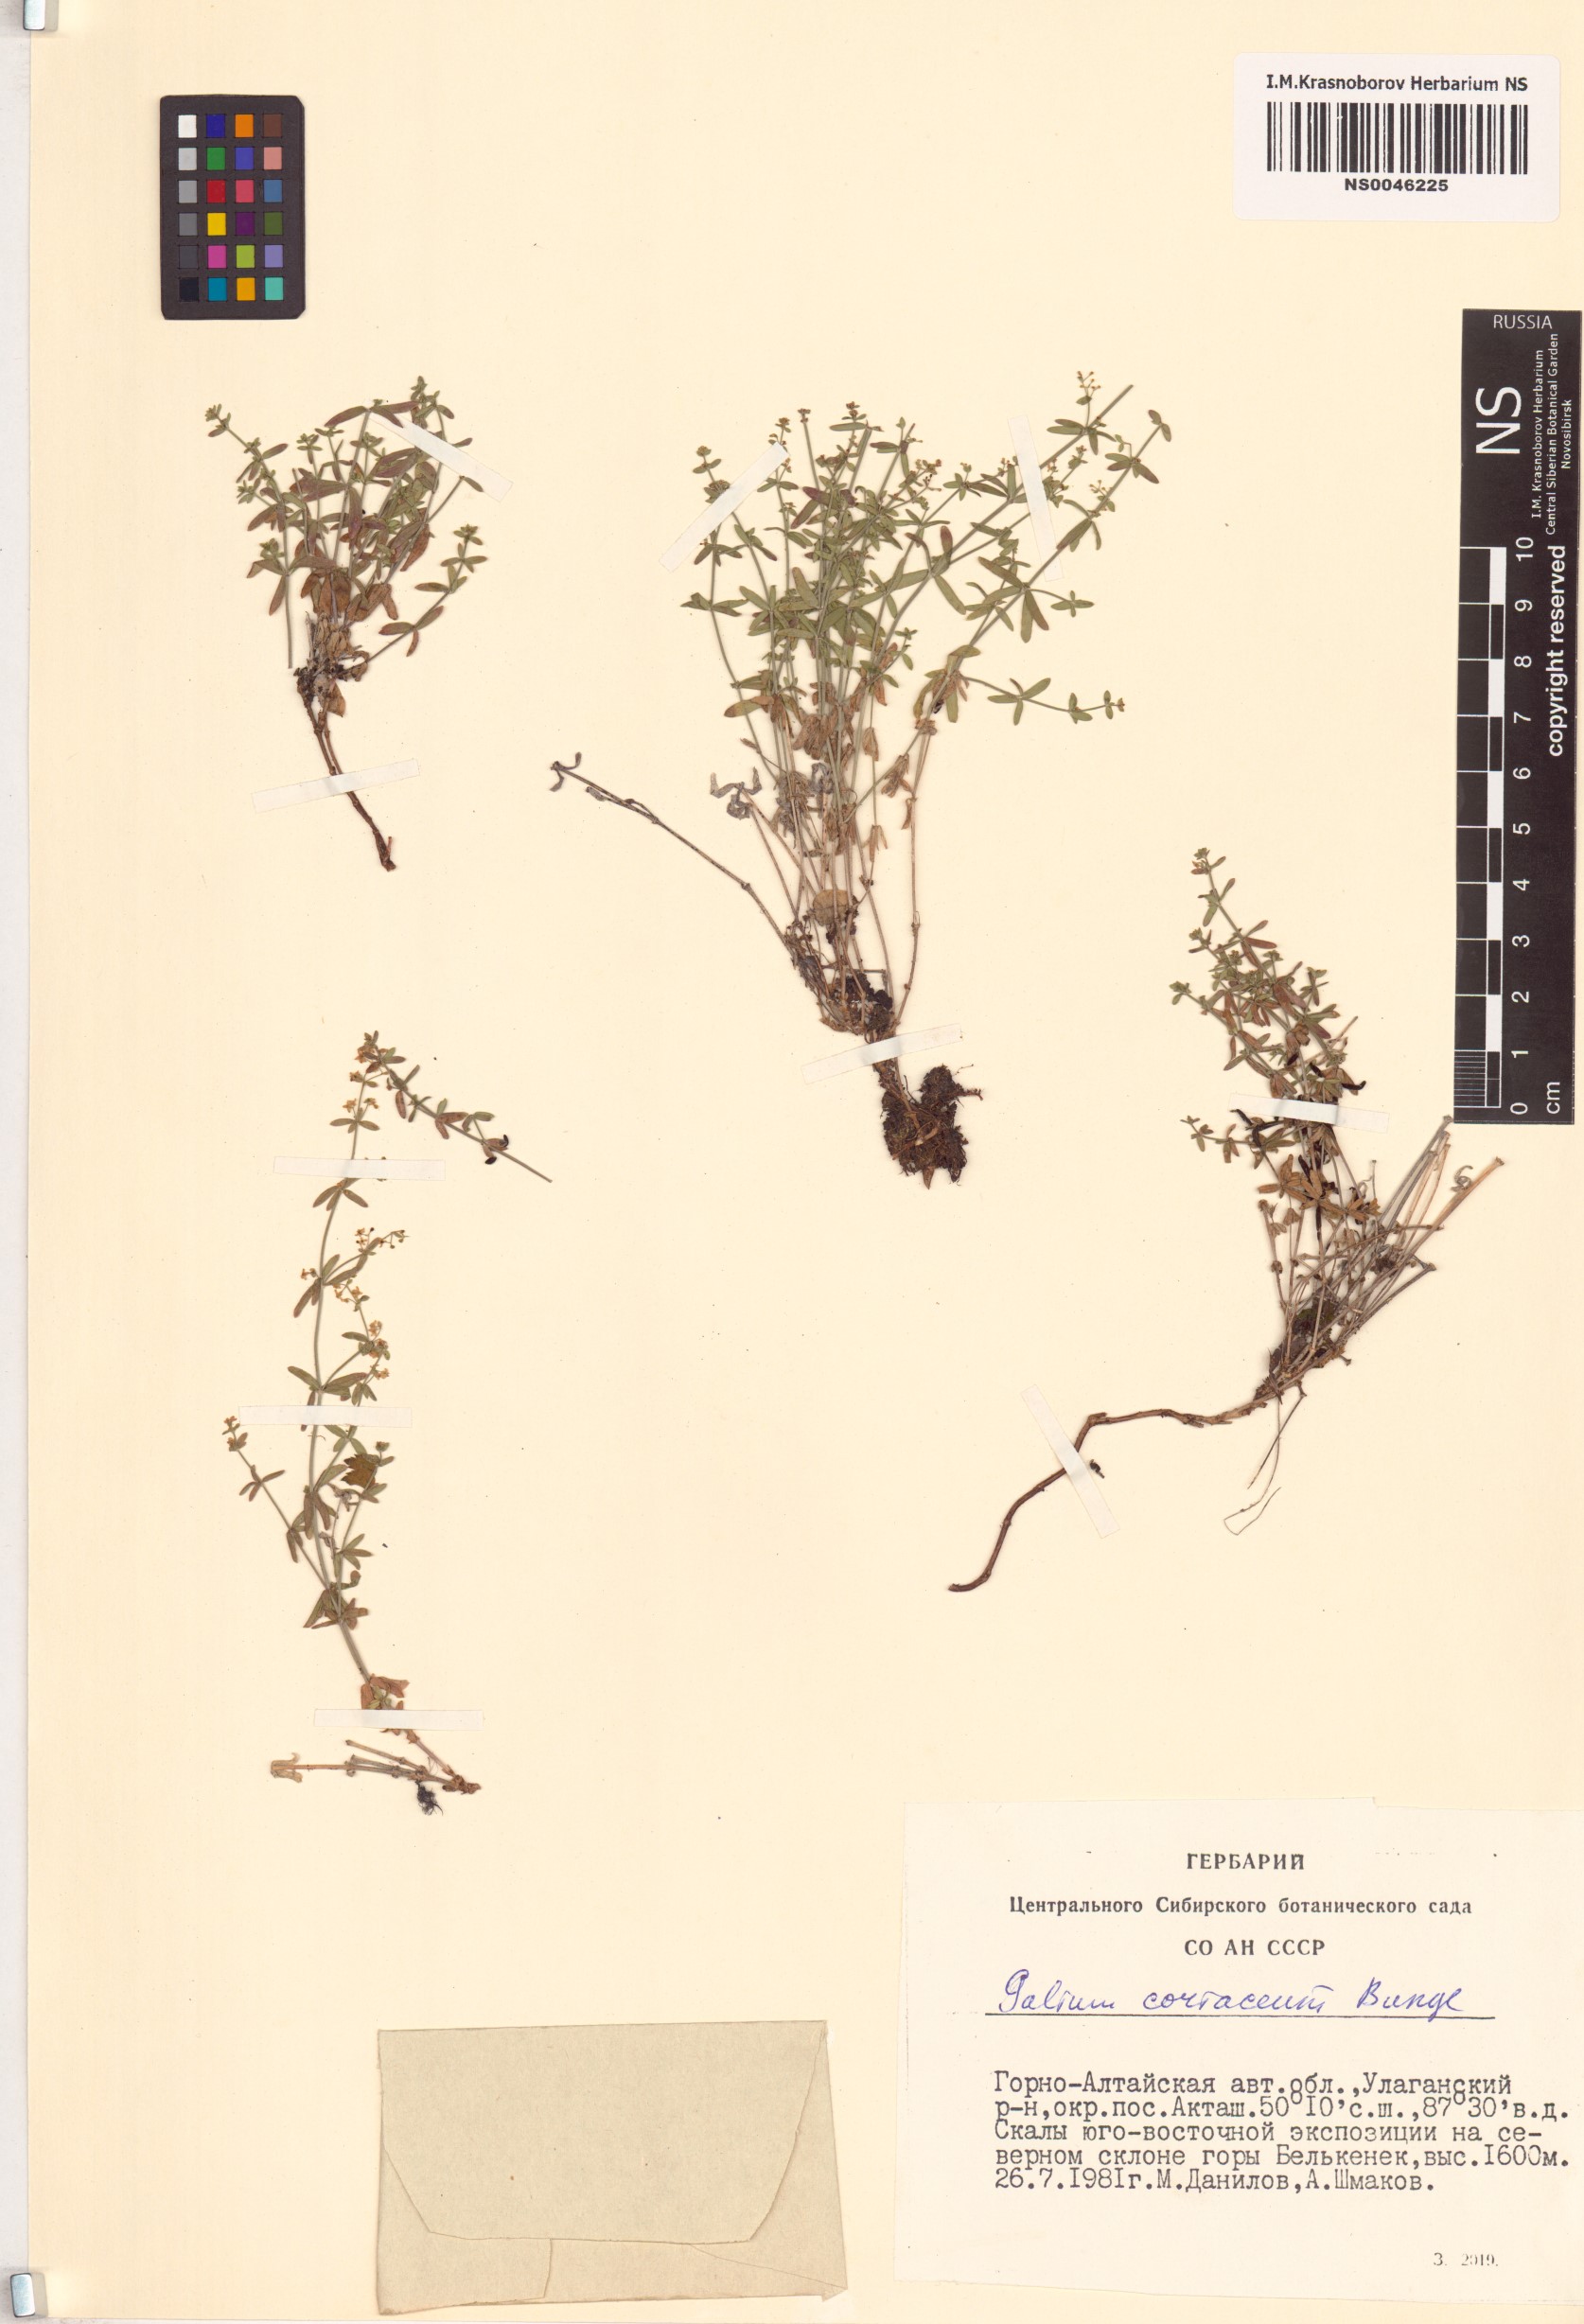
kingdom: Plantae
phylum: Tracheophyta
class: Magnoliopsida
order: Gentianales
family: Rubiaceae
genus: Galium
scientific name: Galium coriaceum
